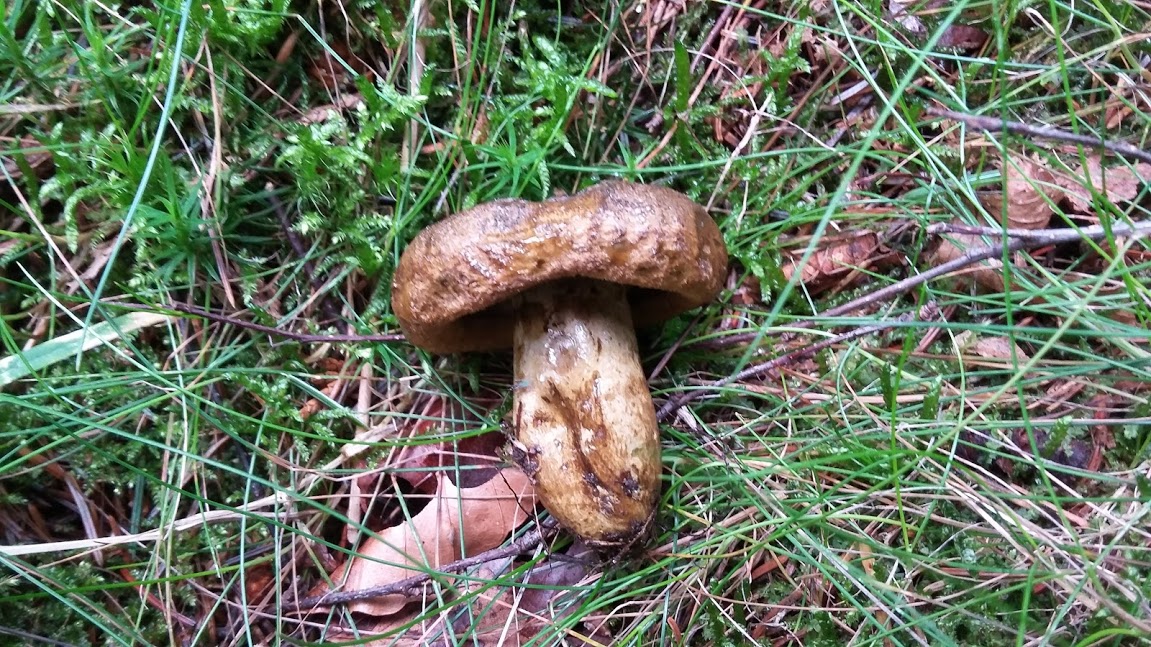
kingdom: Fungi
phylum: Basidiomycota
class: Agaricomycetes
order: Russulales
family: Russulaceae
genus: Lactarius
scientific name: Lactarius necator
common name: manddraber-mælkehat
